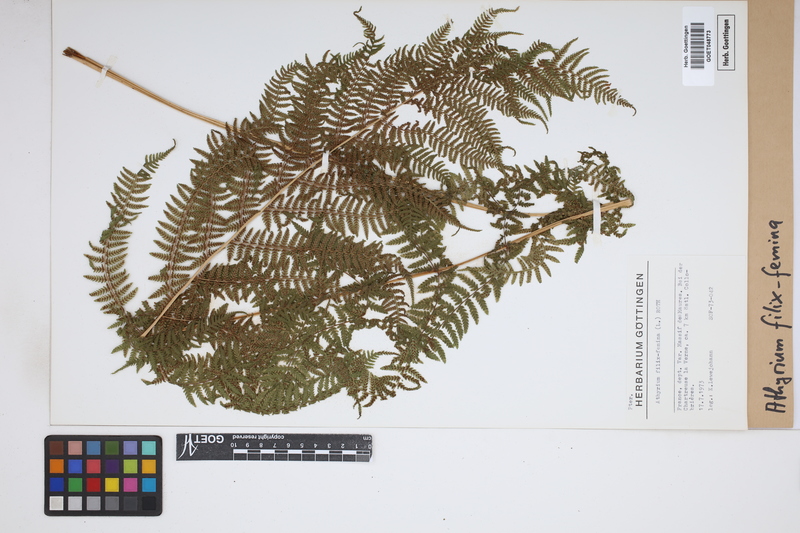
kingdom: Plantae
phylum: Tracheophyta
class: Polypodiopsida
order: Polypodiales
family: Athyriaceae
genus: Athyrium
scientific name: Athyrium filix-femina
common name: Lady fern
